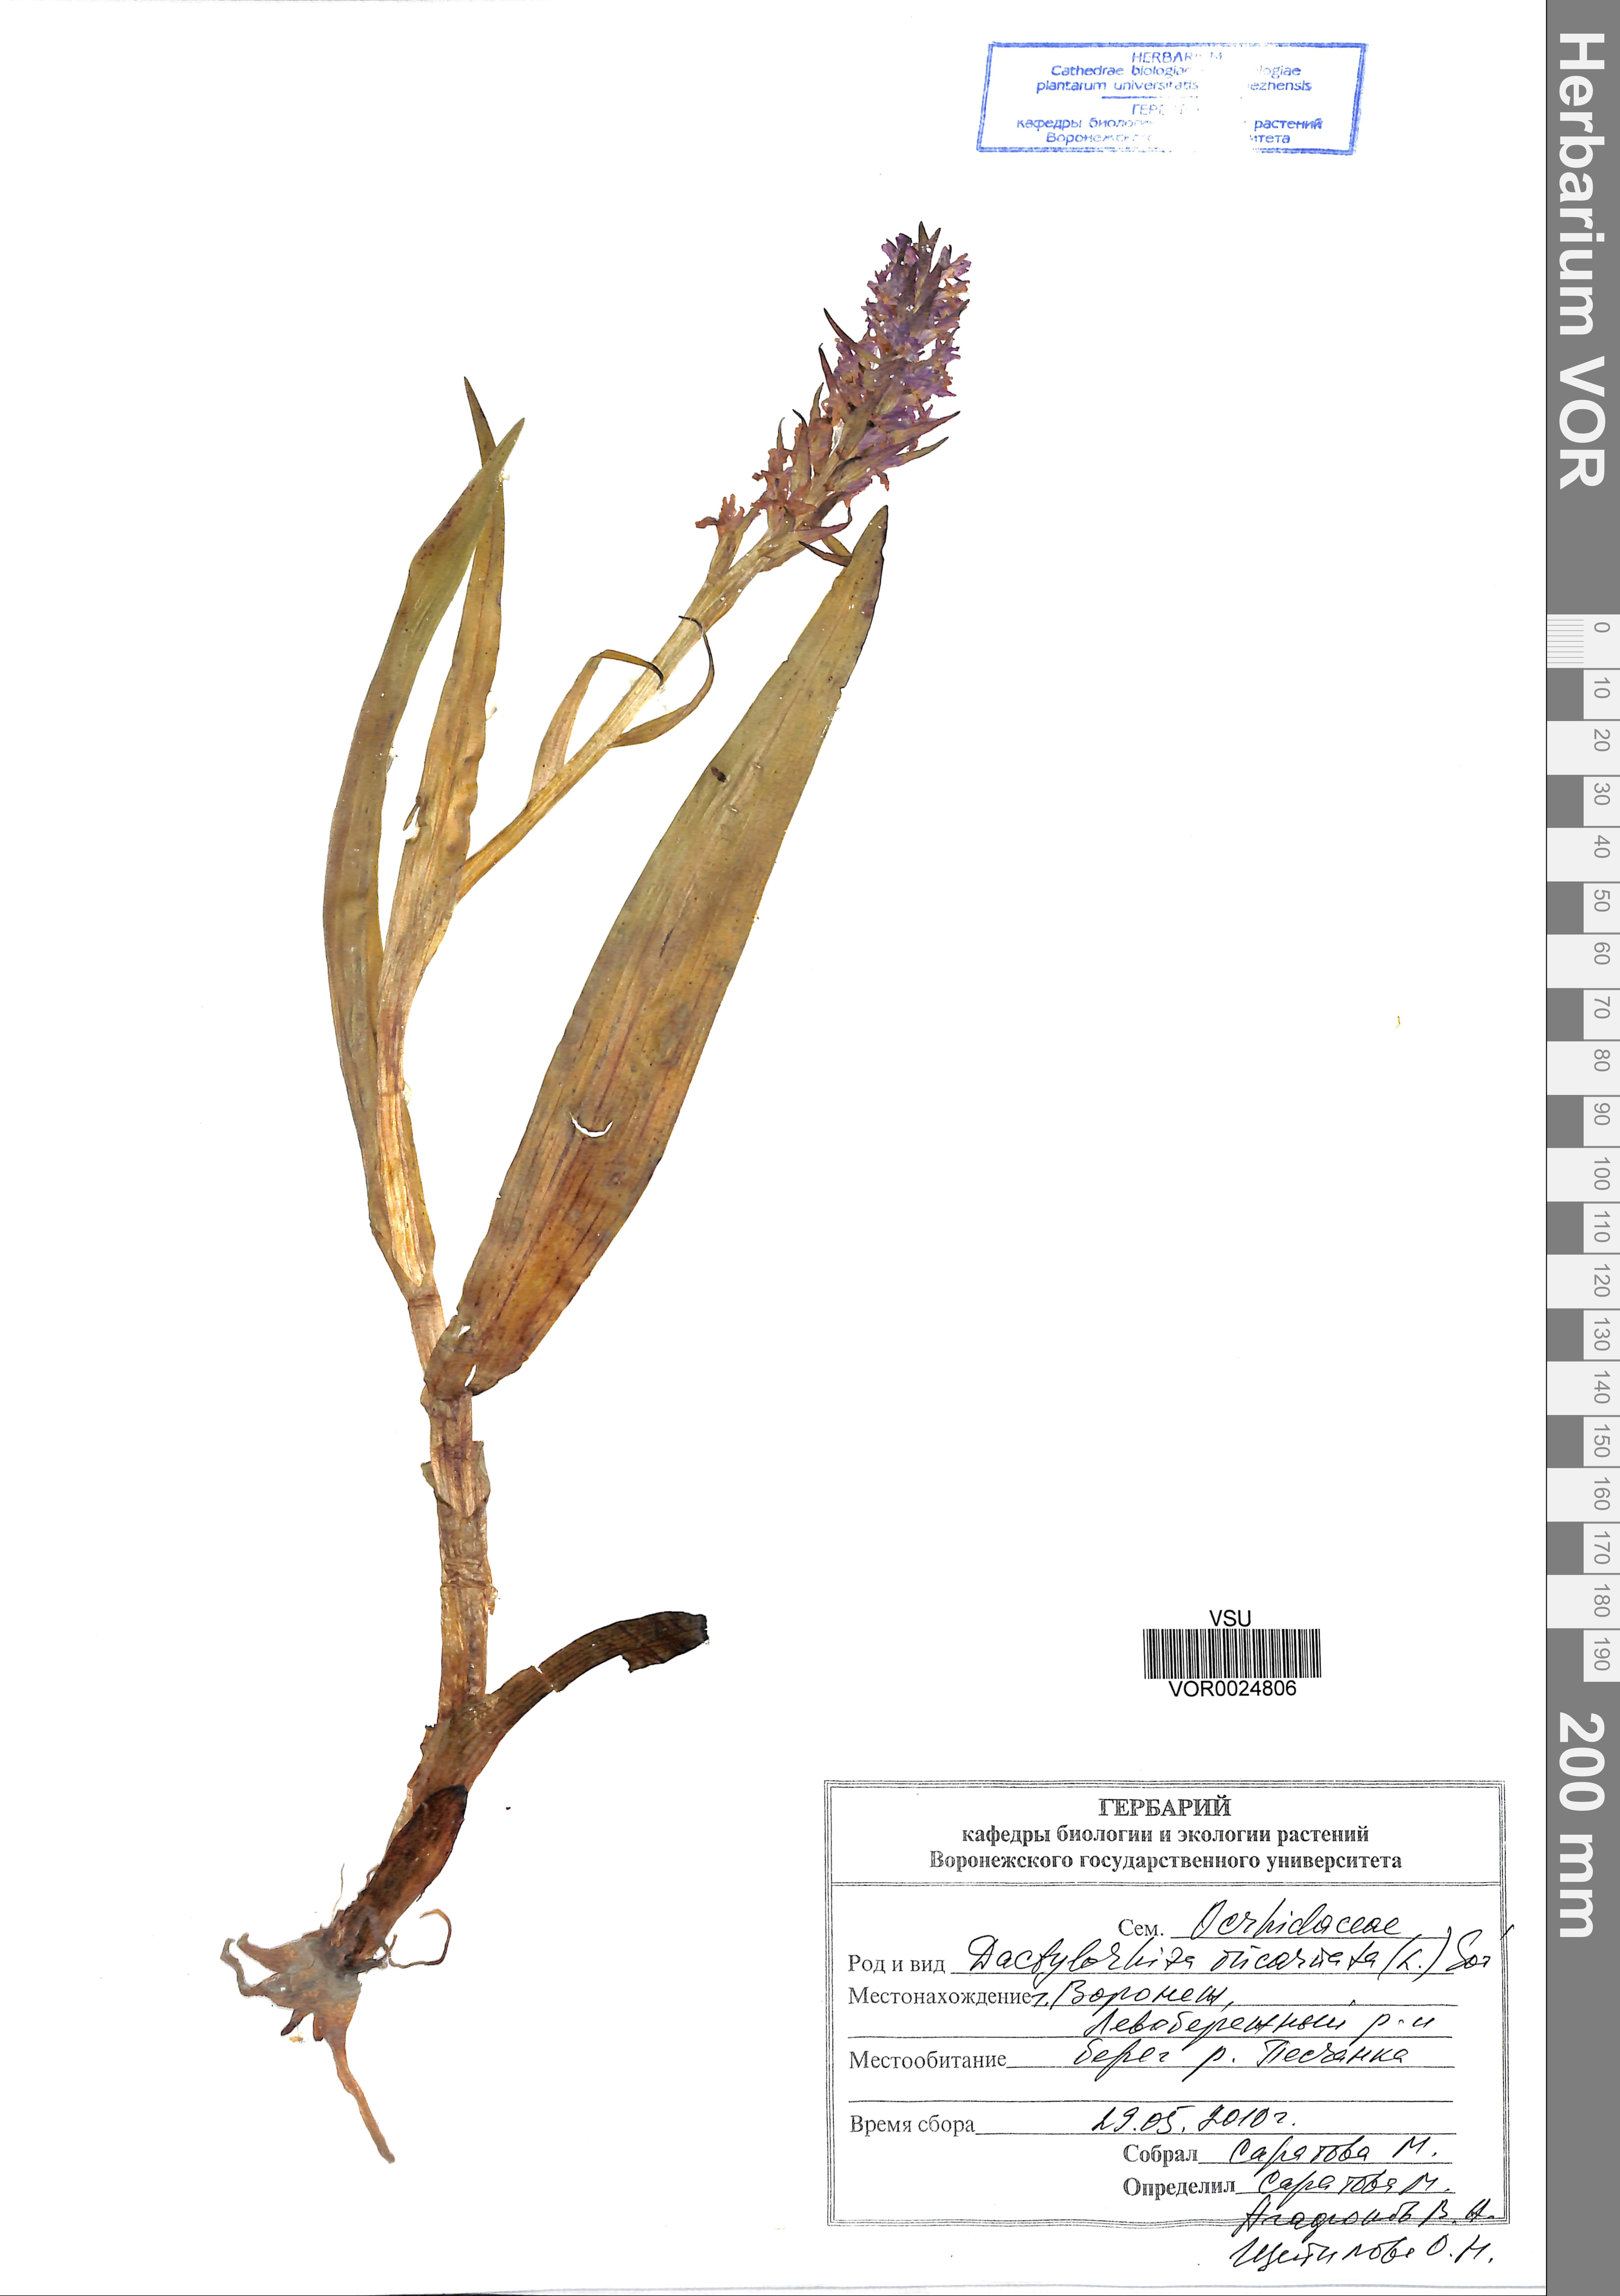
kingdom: Plantae
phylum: Tracheophyta
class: Liliopsida
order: Asparagales
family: Orchidaceae
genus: Dactylorhiza
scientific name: Dactylorhiza incarnata
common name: Early marsh-orchid
